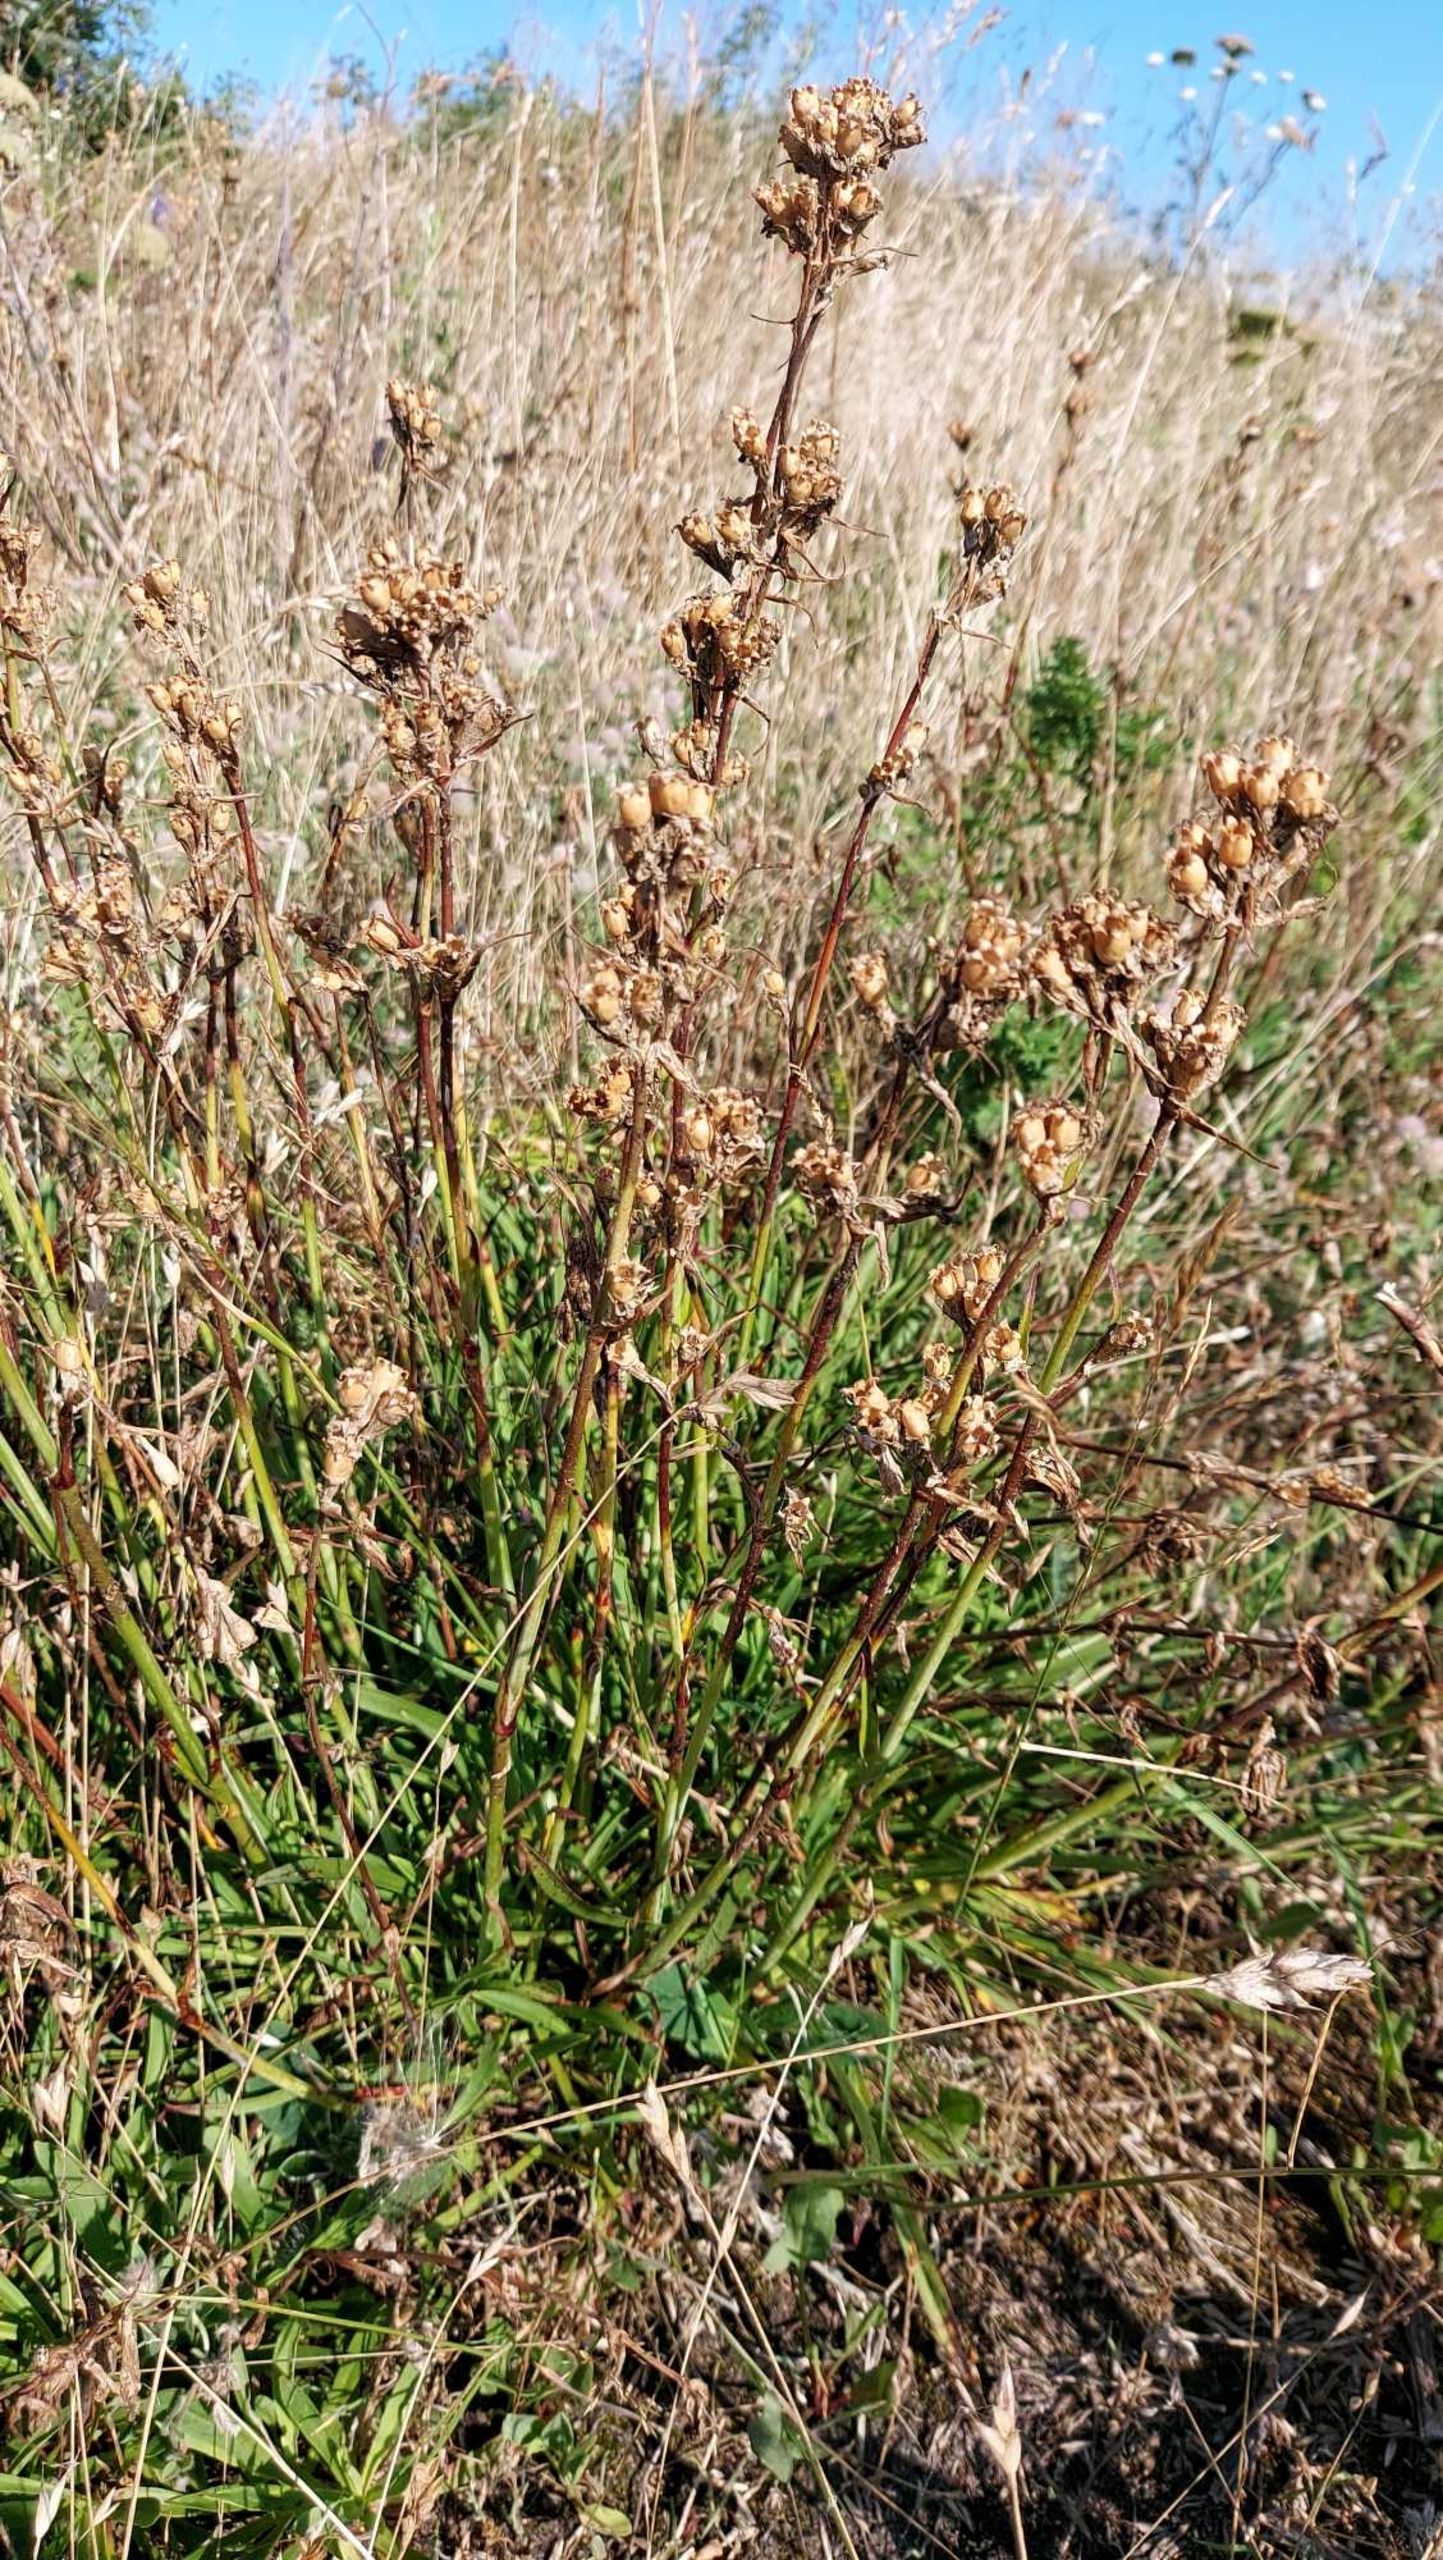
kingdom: Plantae
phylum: Tracheophyta
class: Magnoliopsida
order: Caryophyllales
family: Caryophyllaceae
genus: Viscaria
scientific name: Viscaria vulgaris
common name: Tjærenellike
